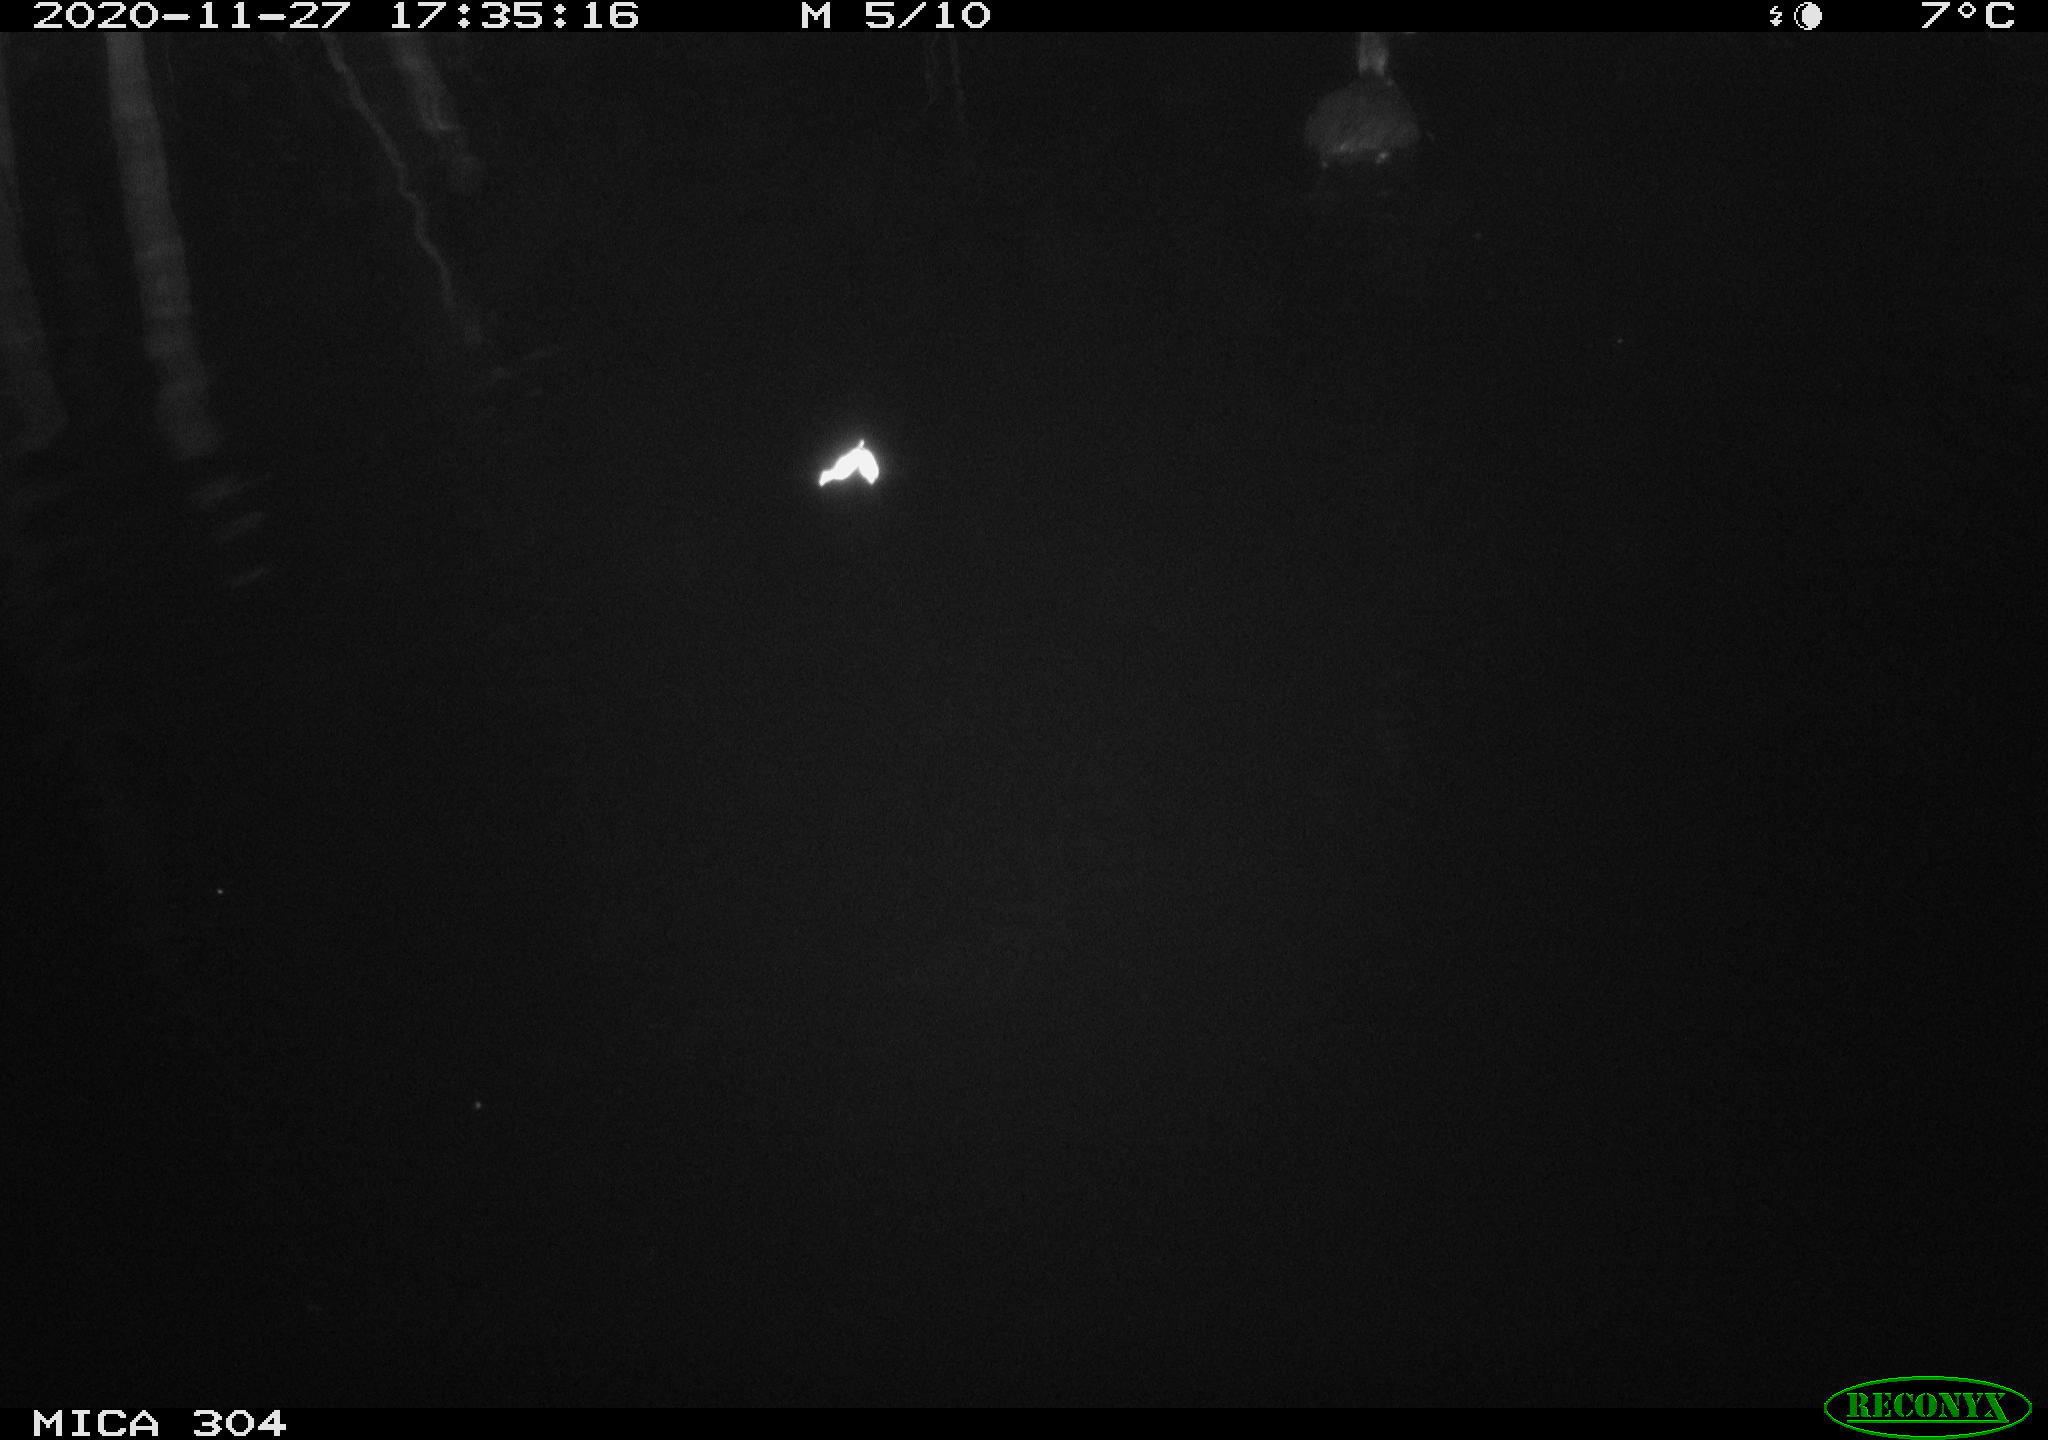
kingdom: Animalia
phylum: Chordata
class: Aves
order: Gruiformes
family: Rallidae
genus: Fulica
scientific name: Fulica atra
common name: Eurasian coot
